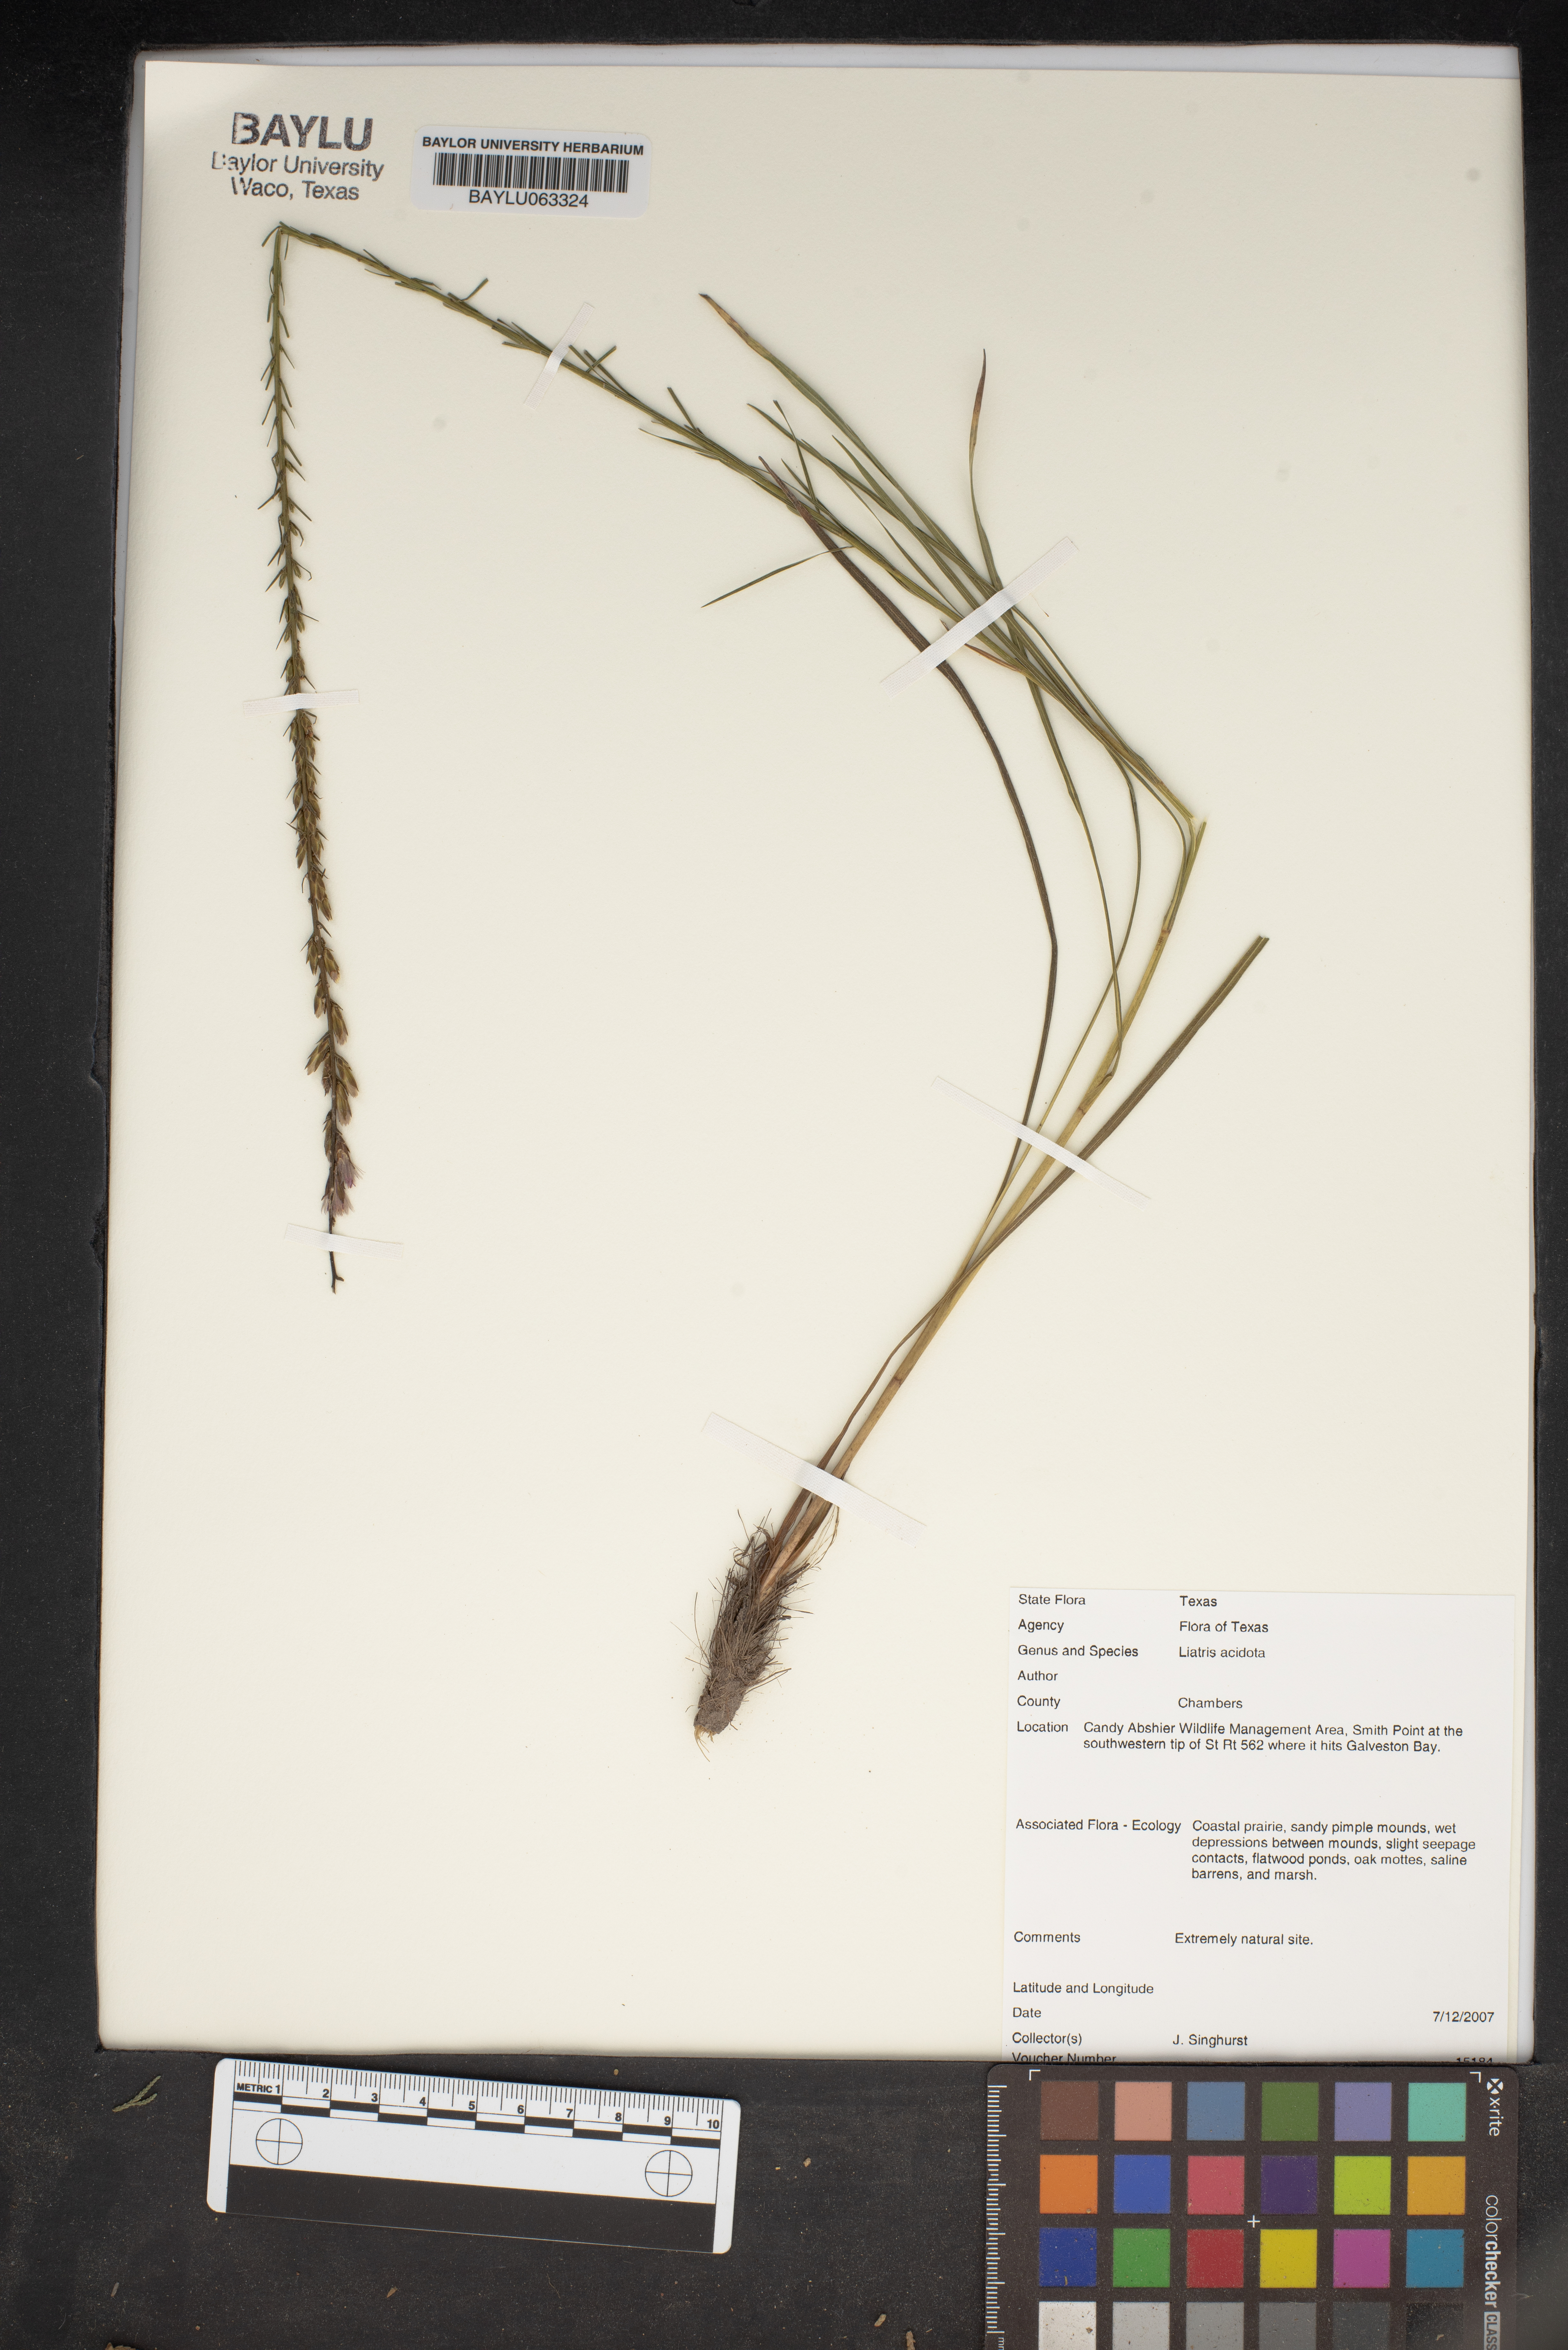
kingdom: Plantae
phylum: Tracheophyta
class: Magnoliopsida
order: Asterales
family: Asteraceae
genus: Liatris
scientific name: Liatris acidota
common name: Gulf coast gayfeather
